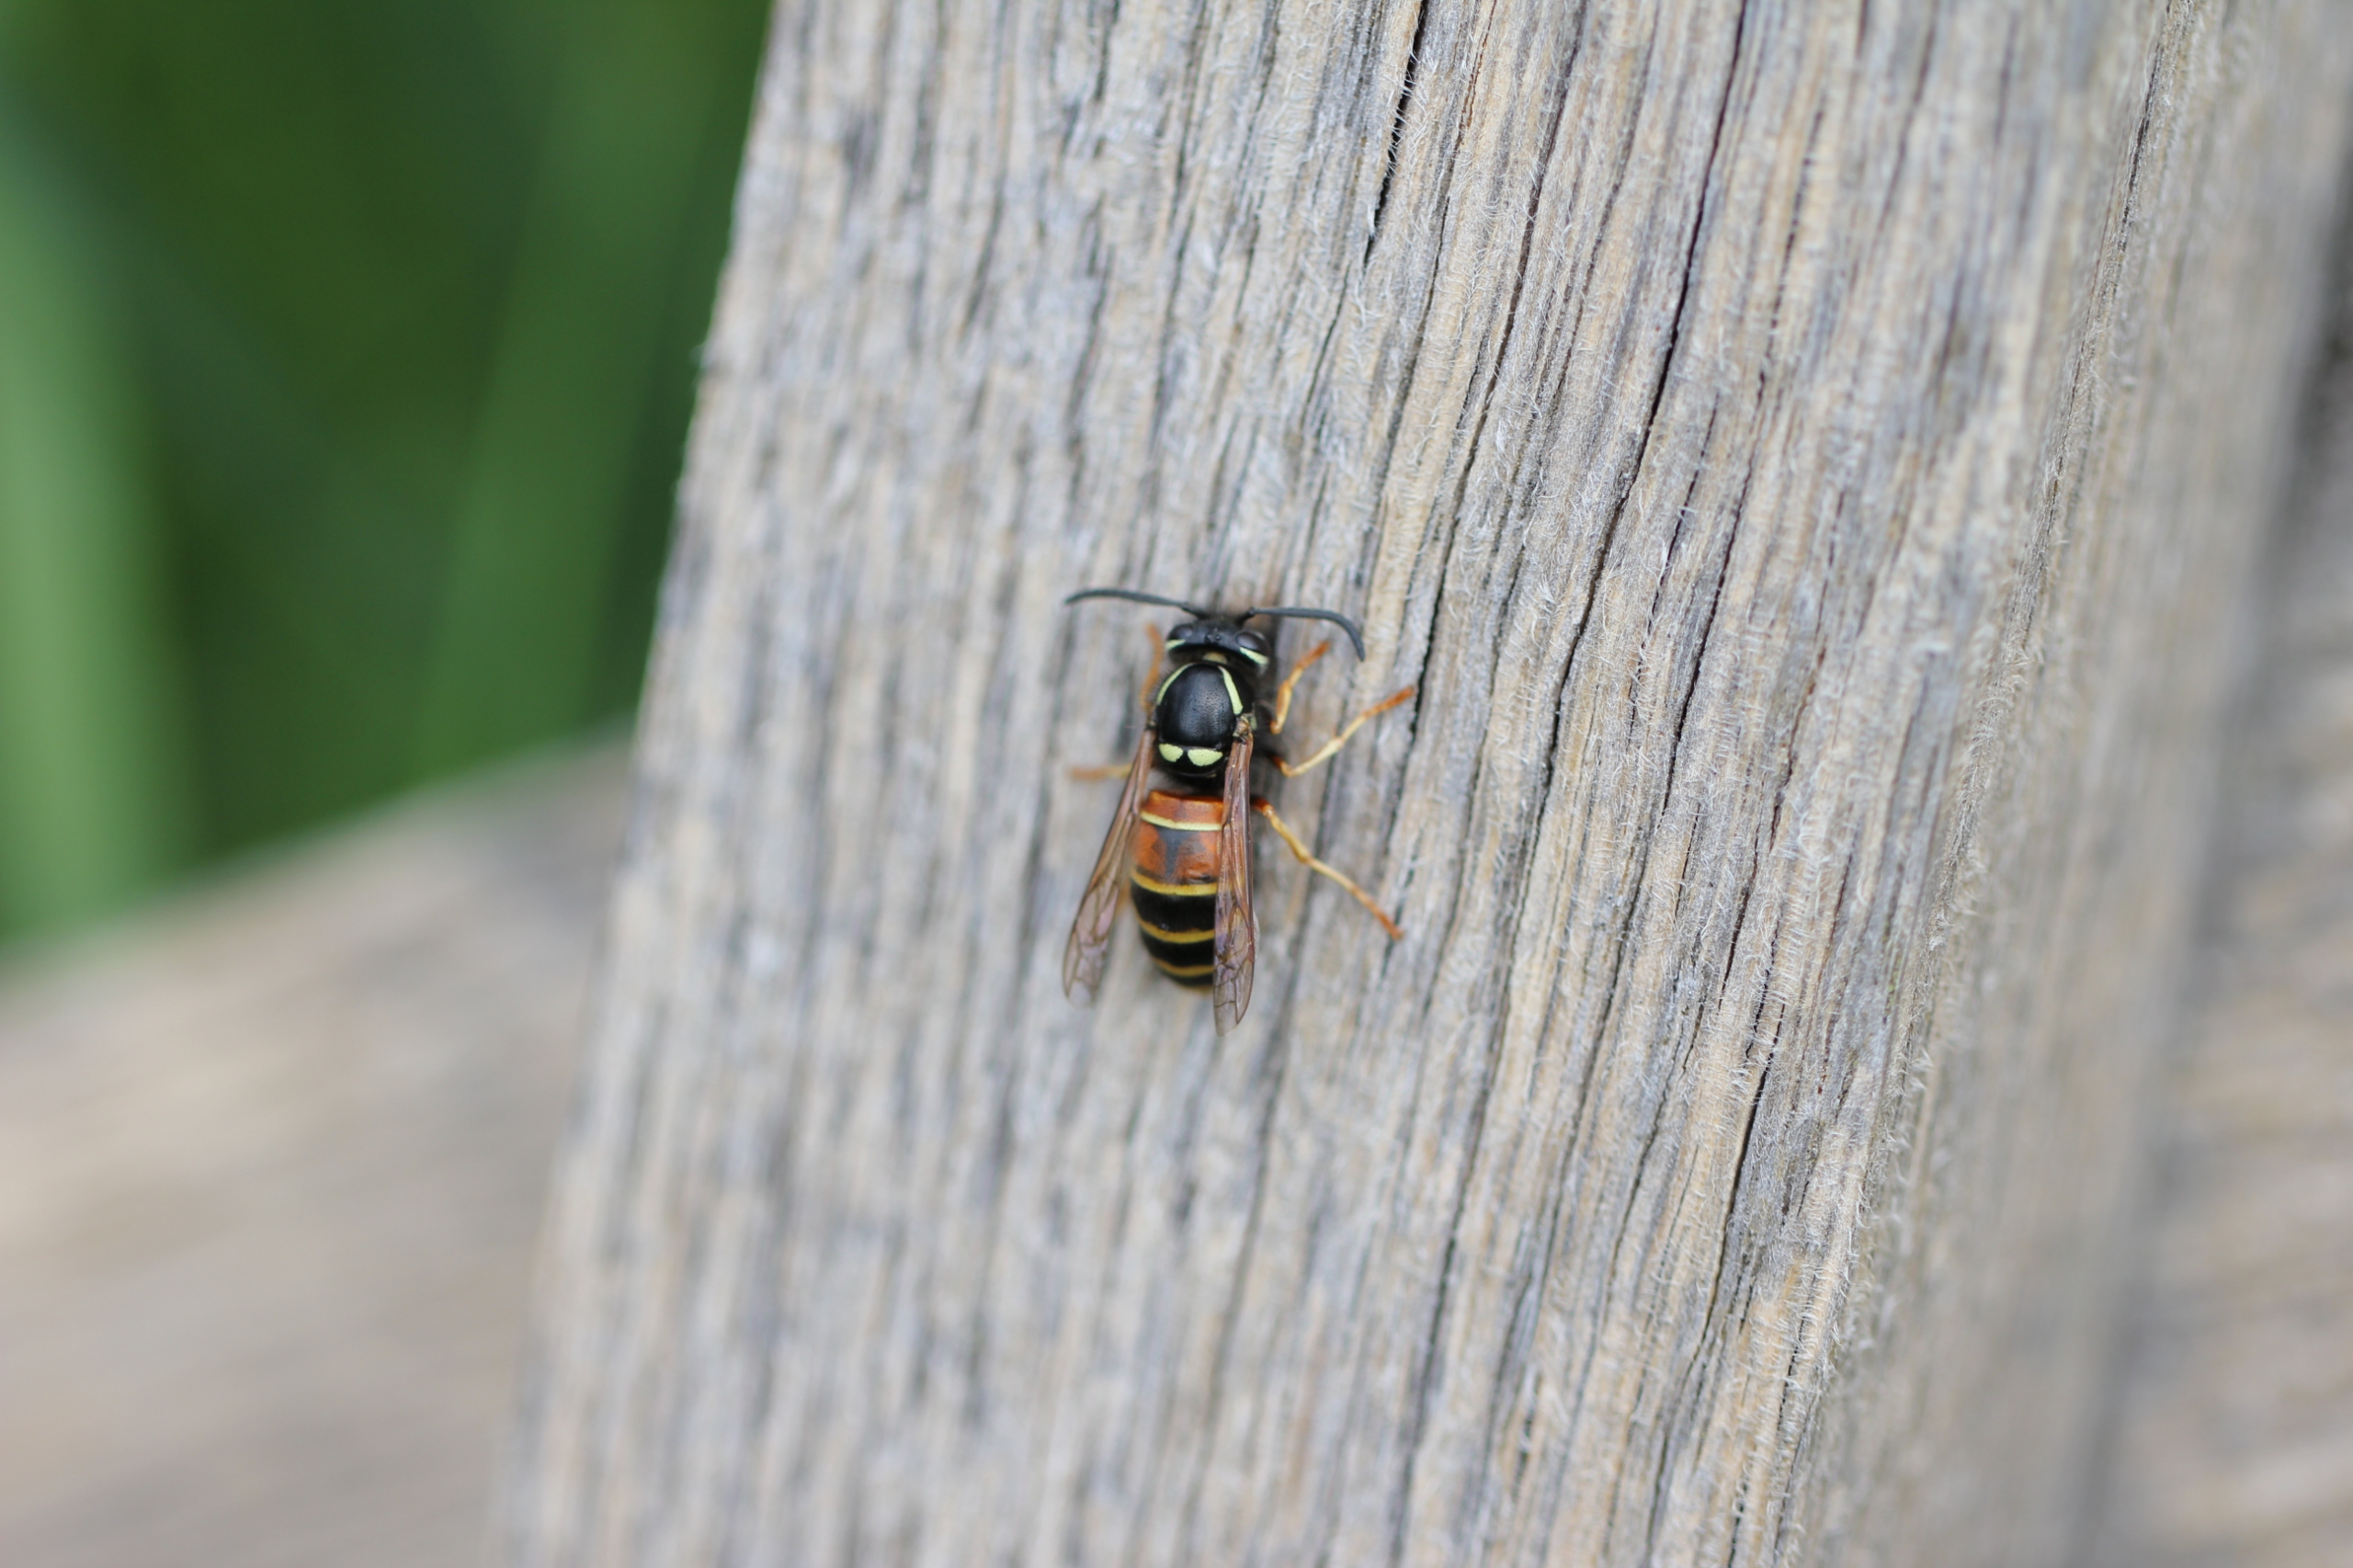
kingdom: Animalia
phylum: Arthropoda
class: Insecta
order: Hymenoptera
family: Vespidae
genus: Vespula
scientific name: Vespula rufa
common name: Rød gedehams
